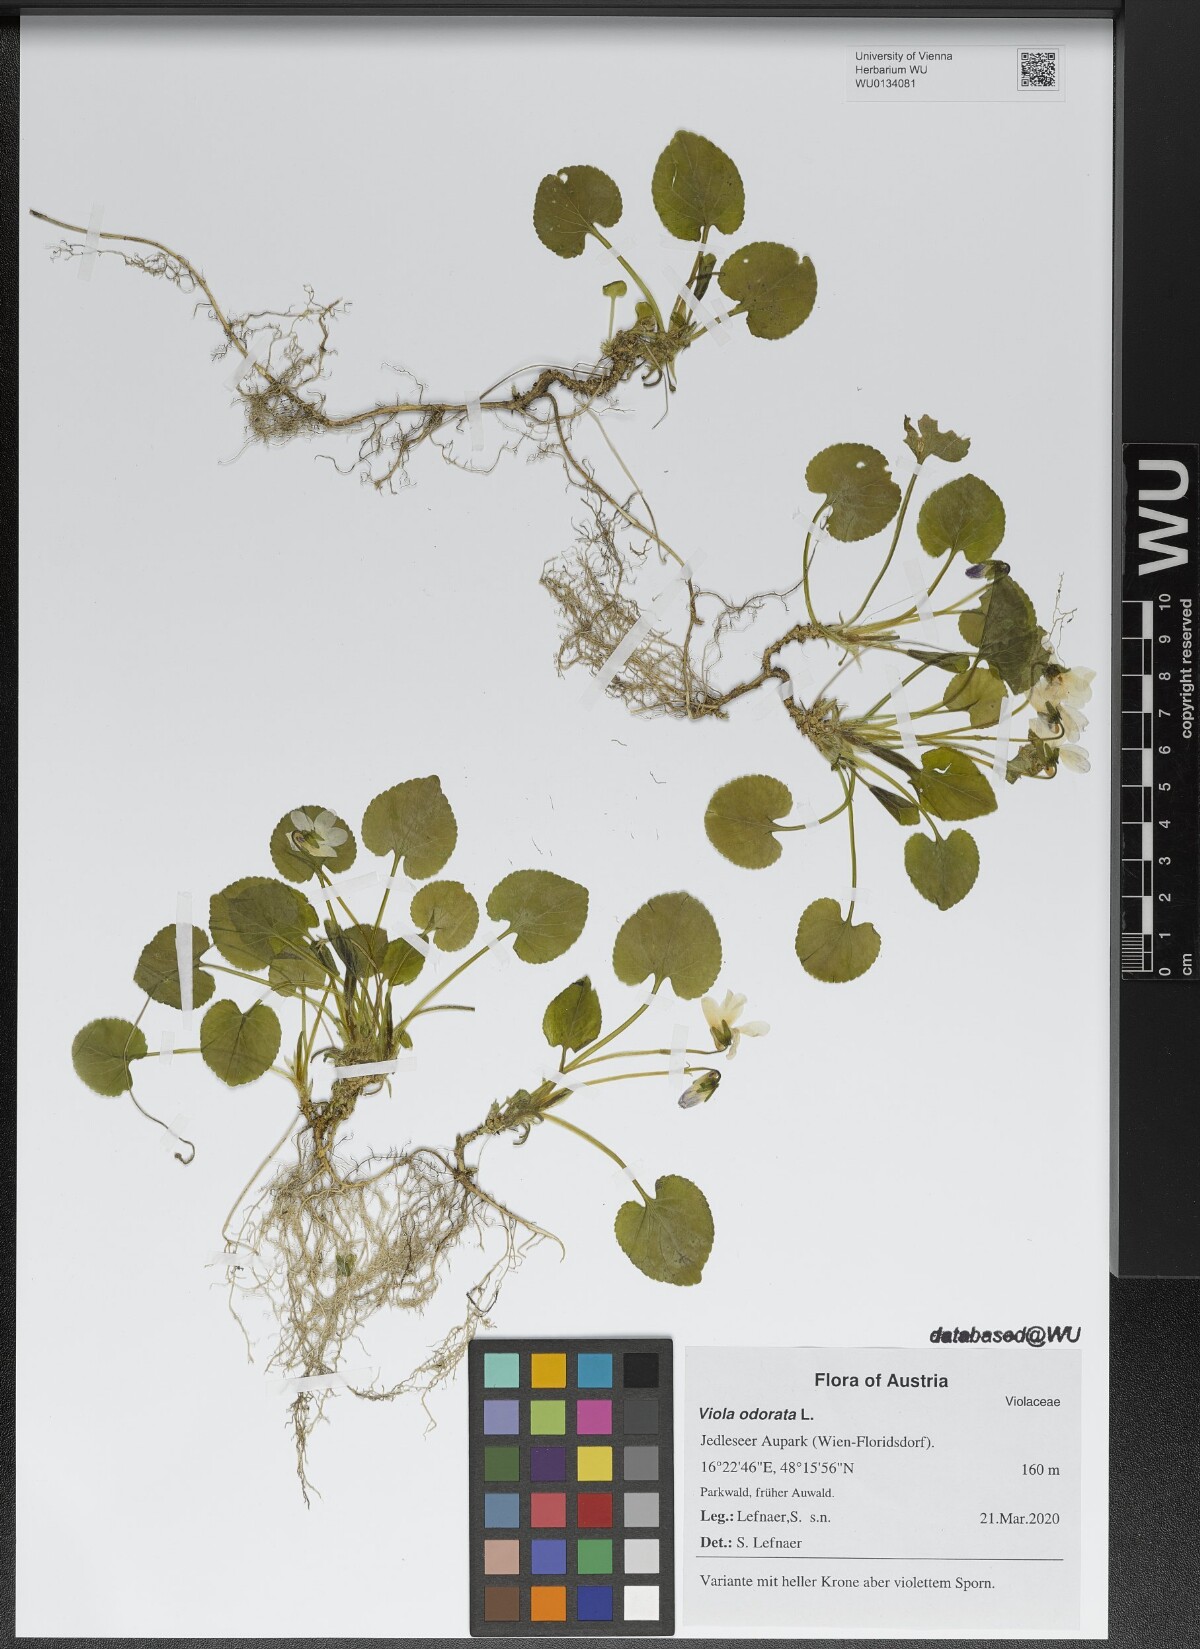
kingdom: Plantae
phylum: Tracheophyta
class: Magnoliopsida
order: Malpighiales
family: Violaceae
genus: Viola
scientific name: Viola odorata
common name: Sweet violet
